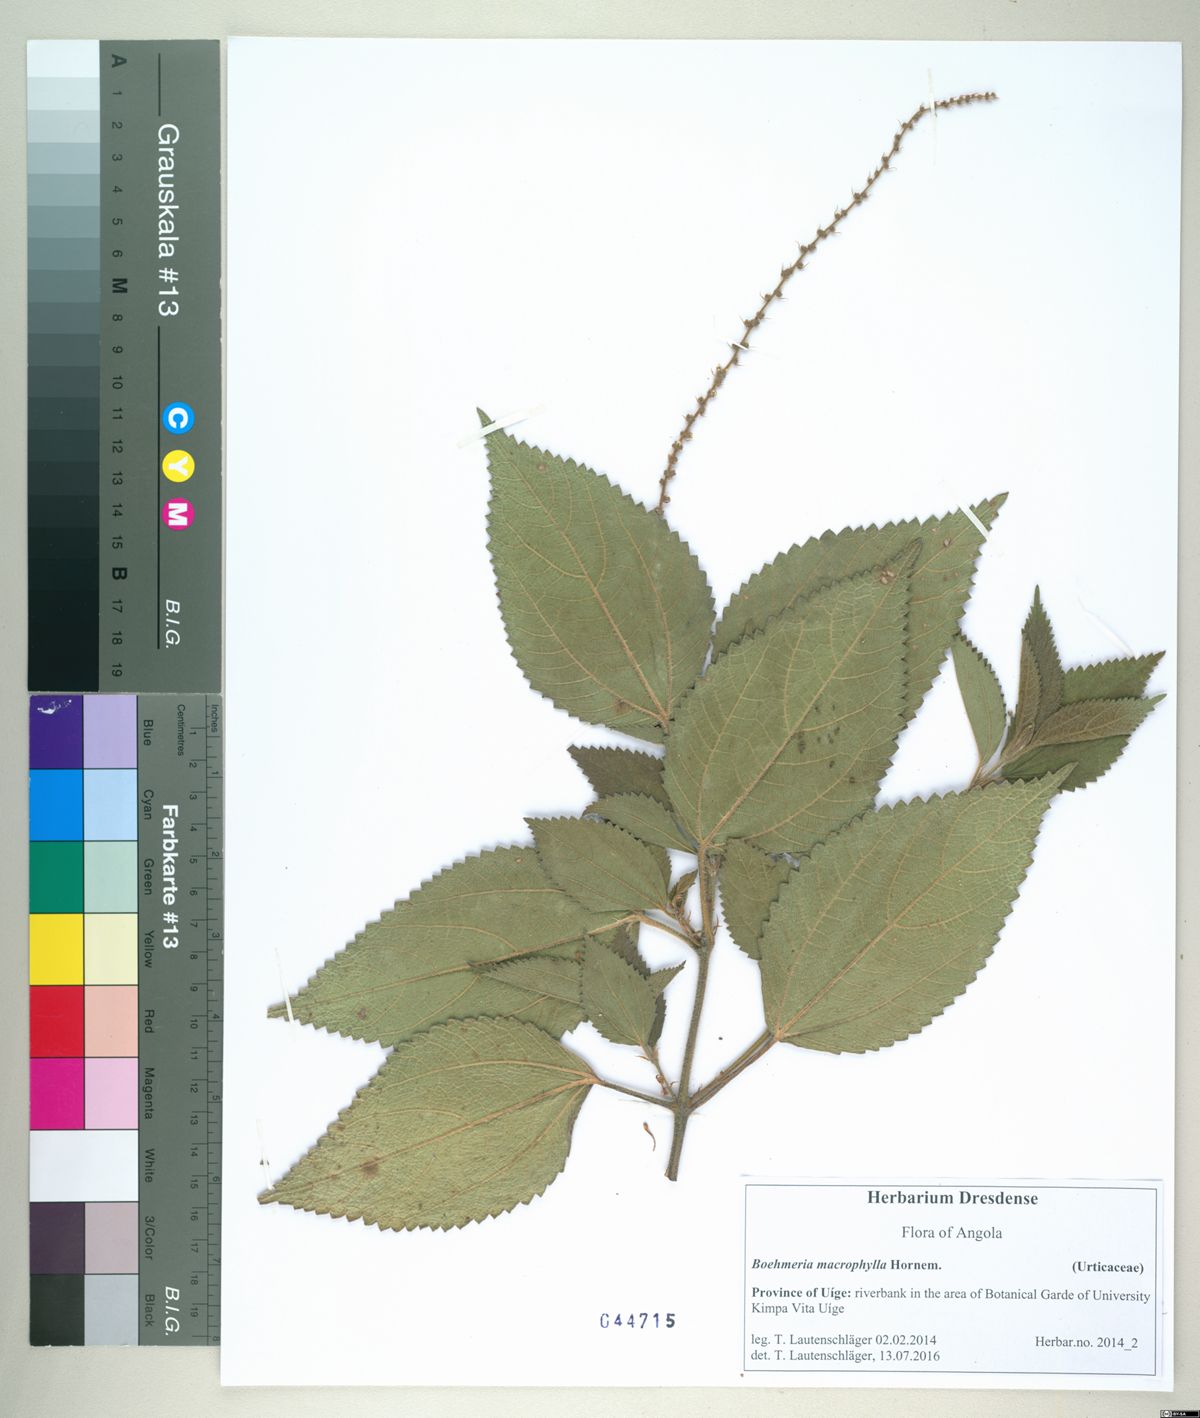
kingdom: Plantae
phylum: Tracheophyta
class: Magnoliopsida
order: Rosales
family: Urticaceae
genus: Boehmeria
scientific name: Boehmeria virgata
